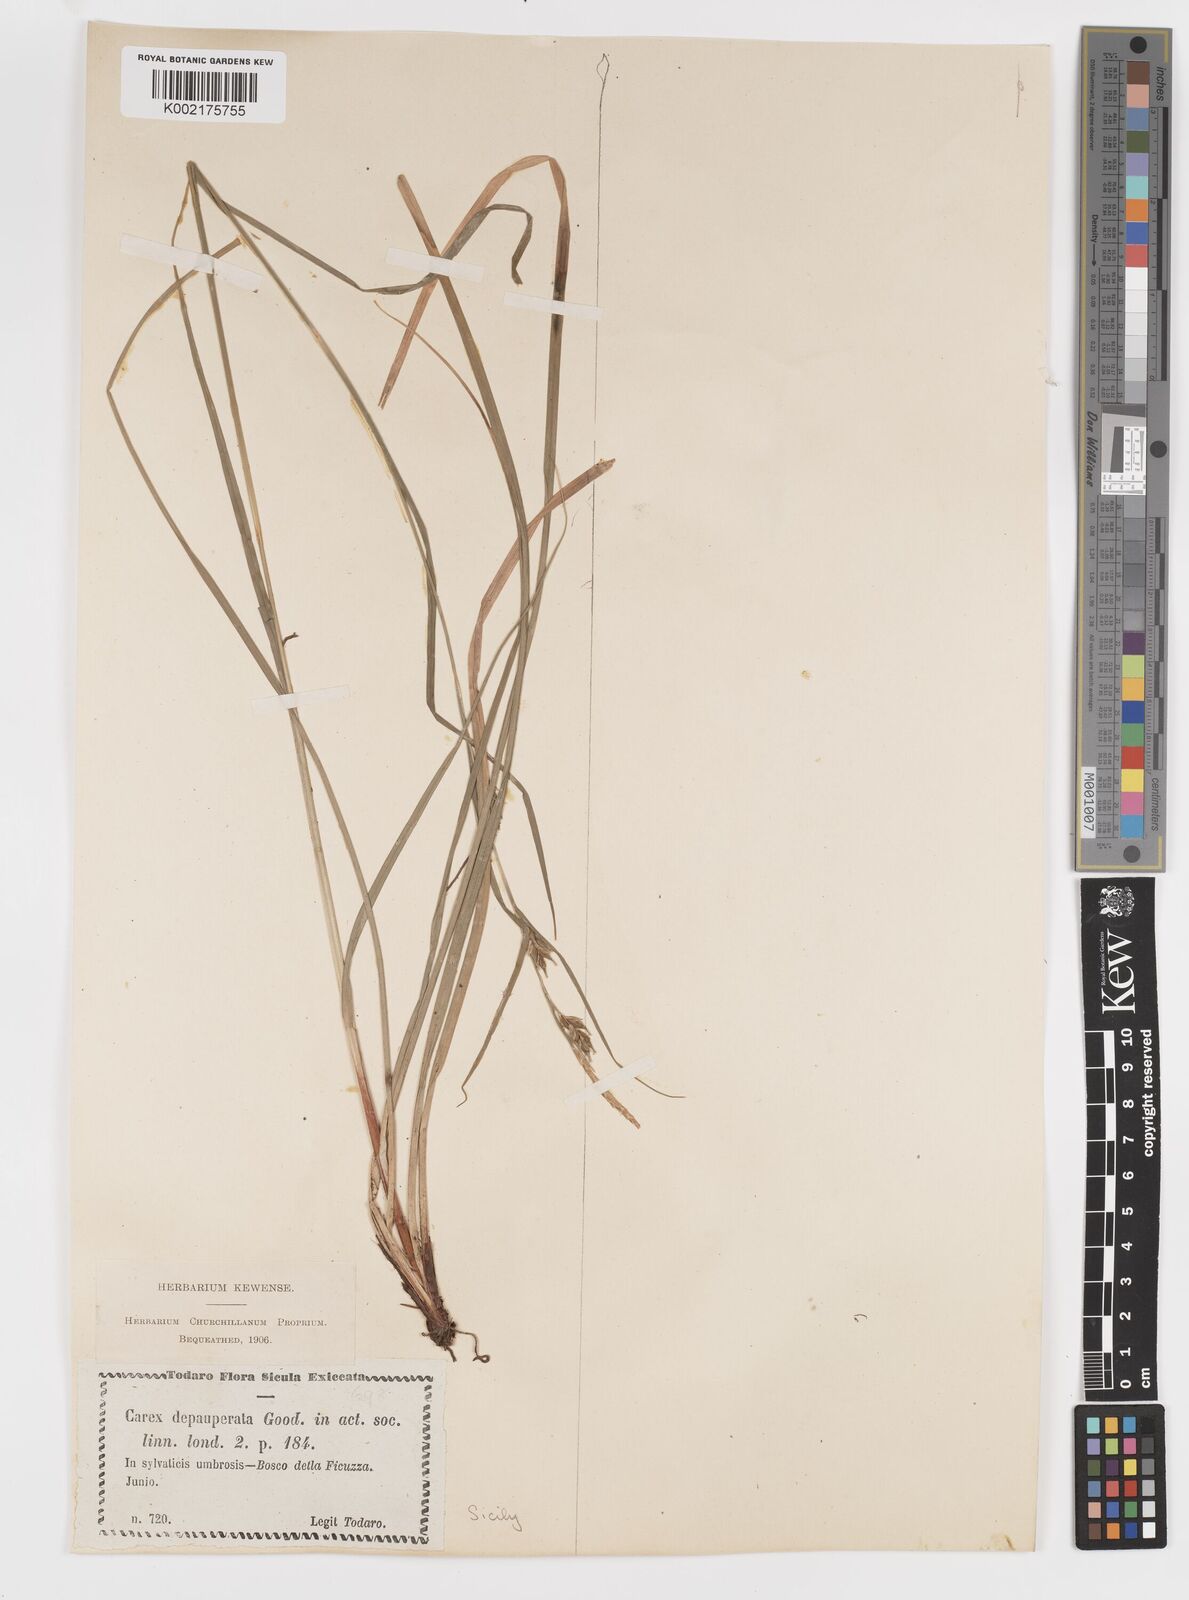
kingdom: Plantae
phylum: Tracheophyta
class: Liliopsida
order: Poales
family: Cyperaceae
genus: Carex
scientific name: Carex
